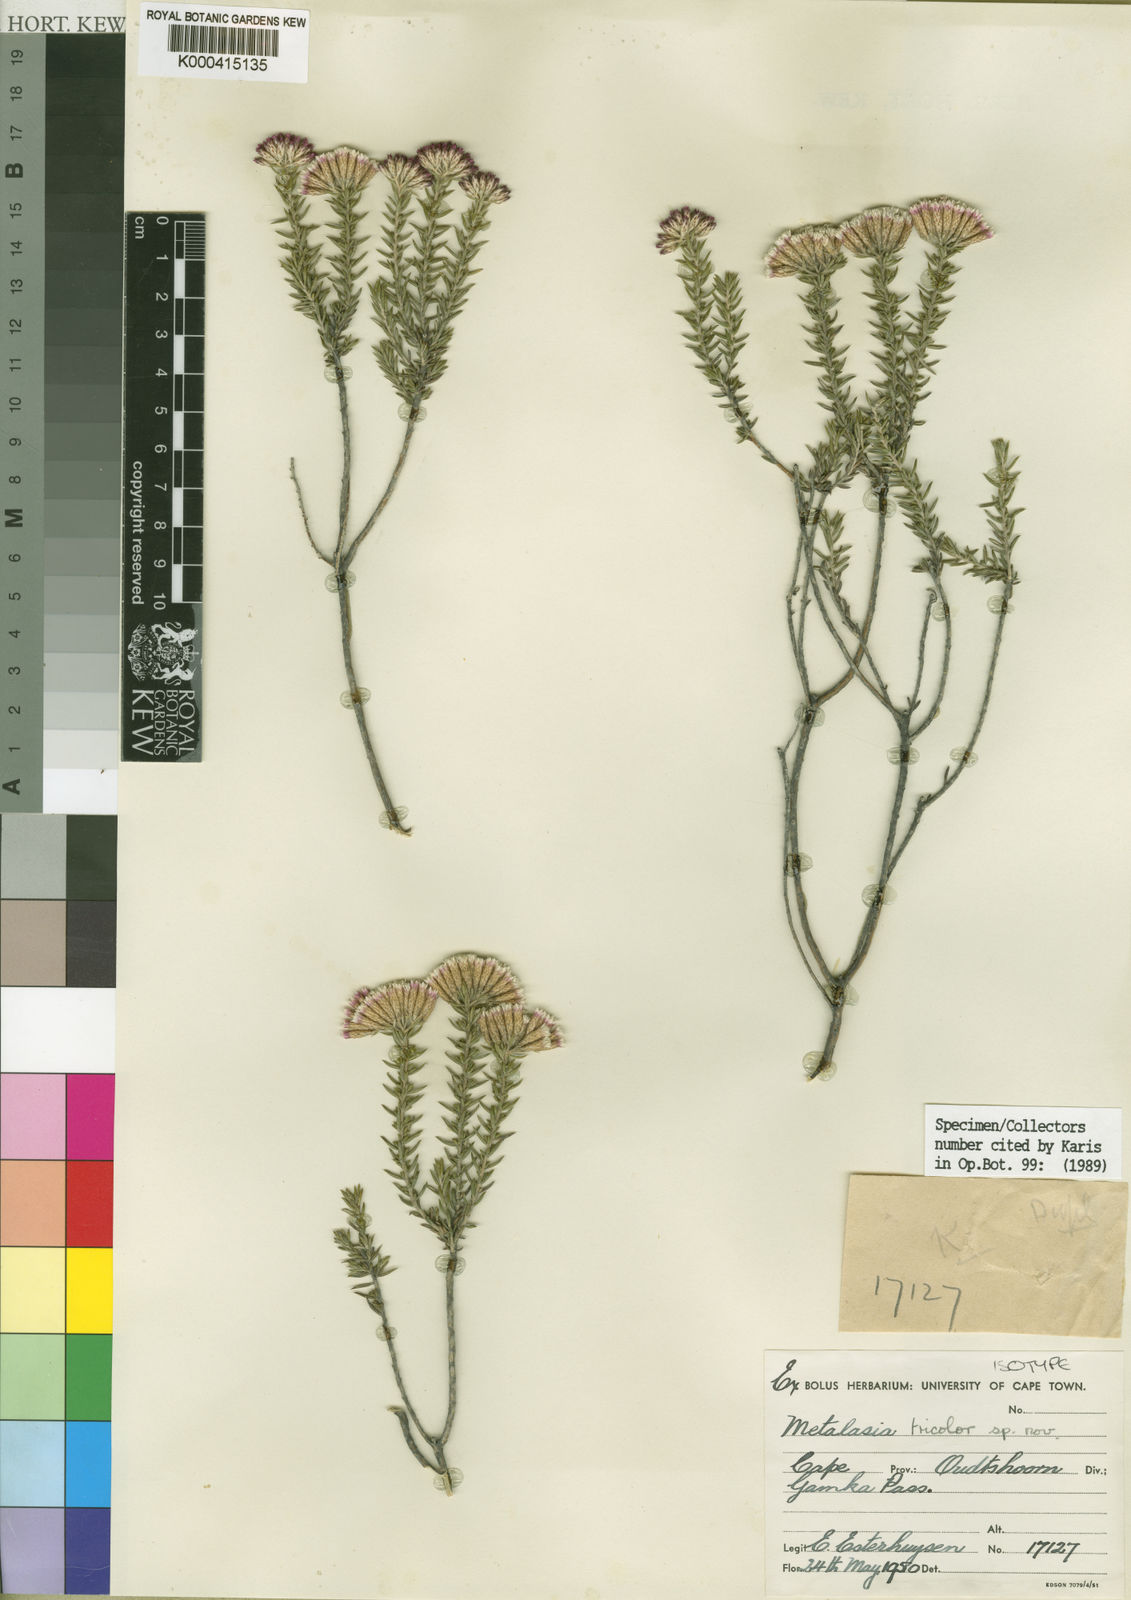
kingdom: Plantae
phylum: Tracheophyta
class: Magnoliopsida
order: Asterales
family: Asteraceae
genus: Metalasia
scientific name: Metalasia tricolor
